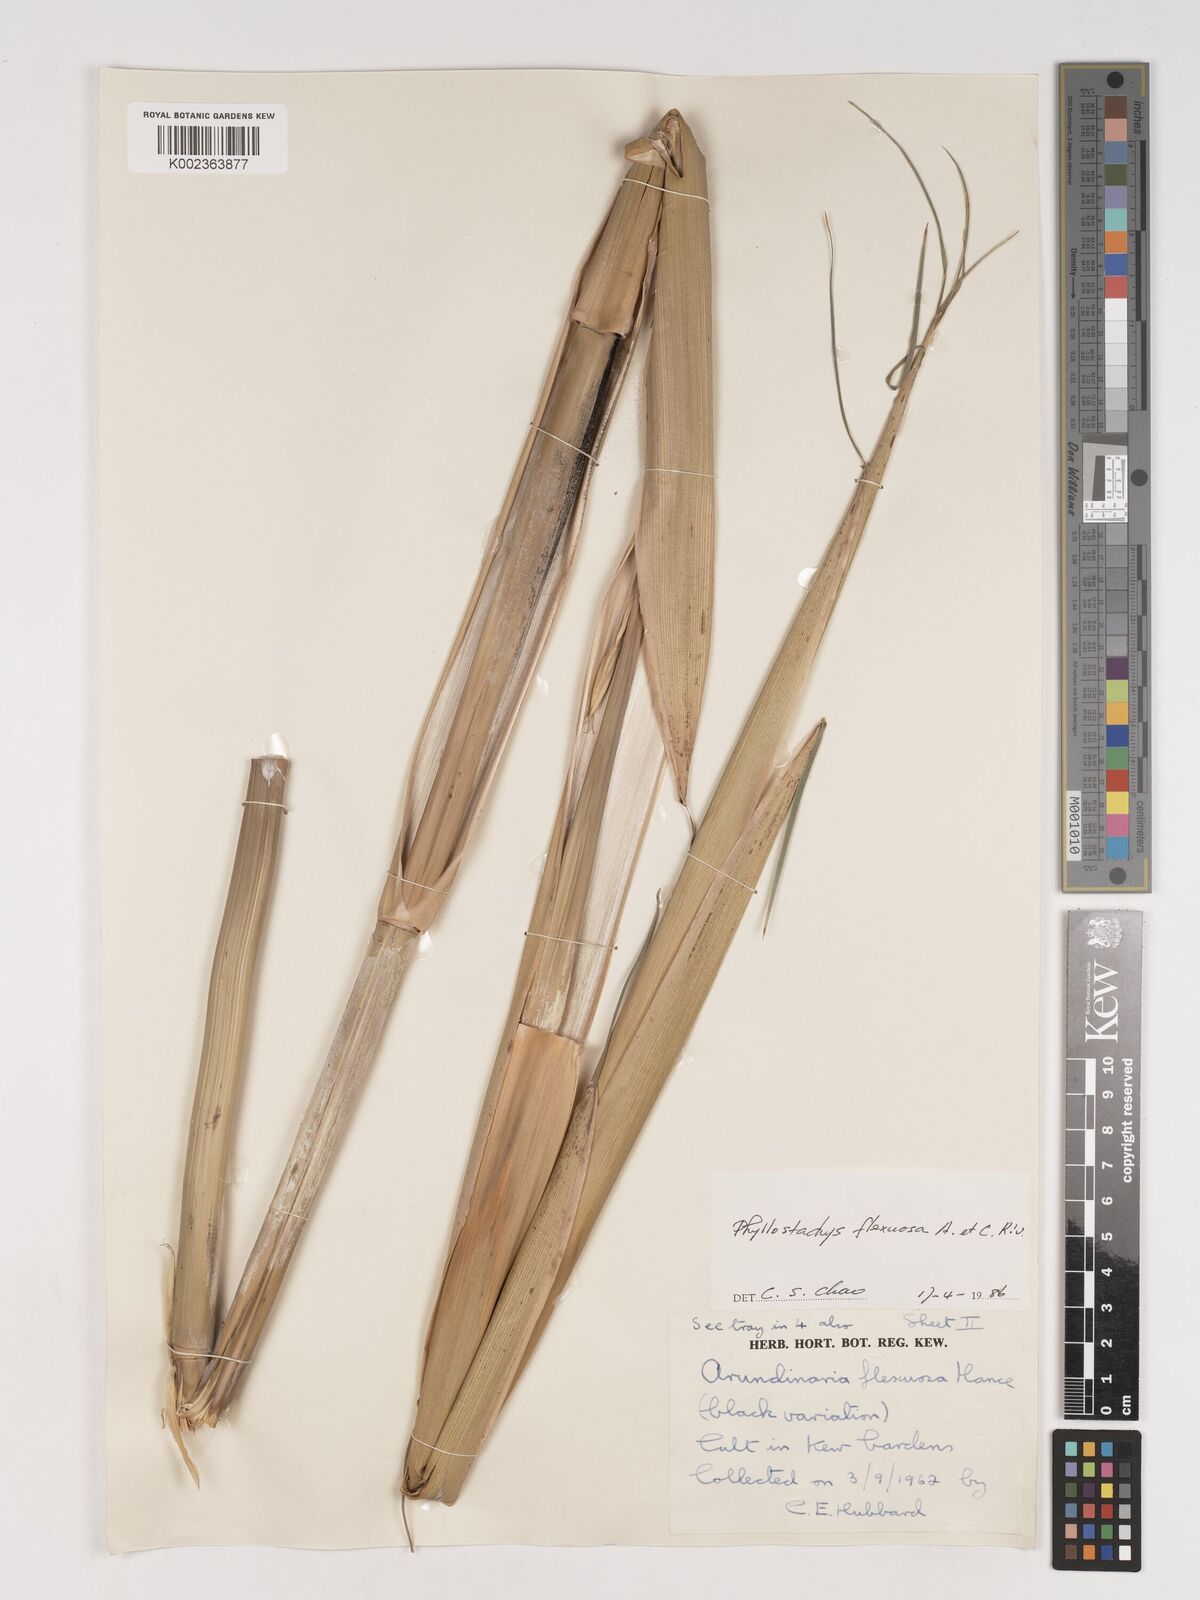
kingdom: Plantae
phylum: Tracheophyta
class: Liliopsida
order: Poales
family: Poaceae
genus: Phyllostachys
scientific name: Phyllostachys flexuosa
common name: Drooping timber bamboo
